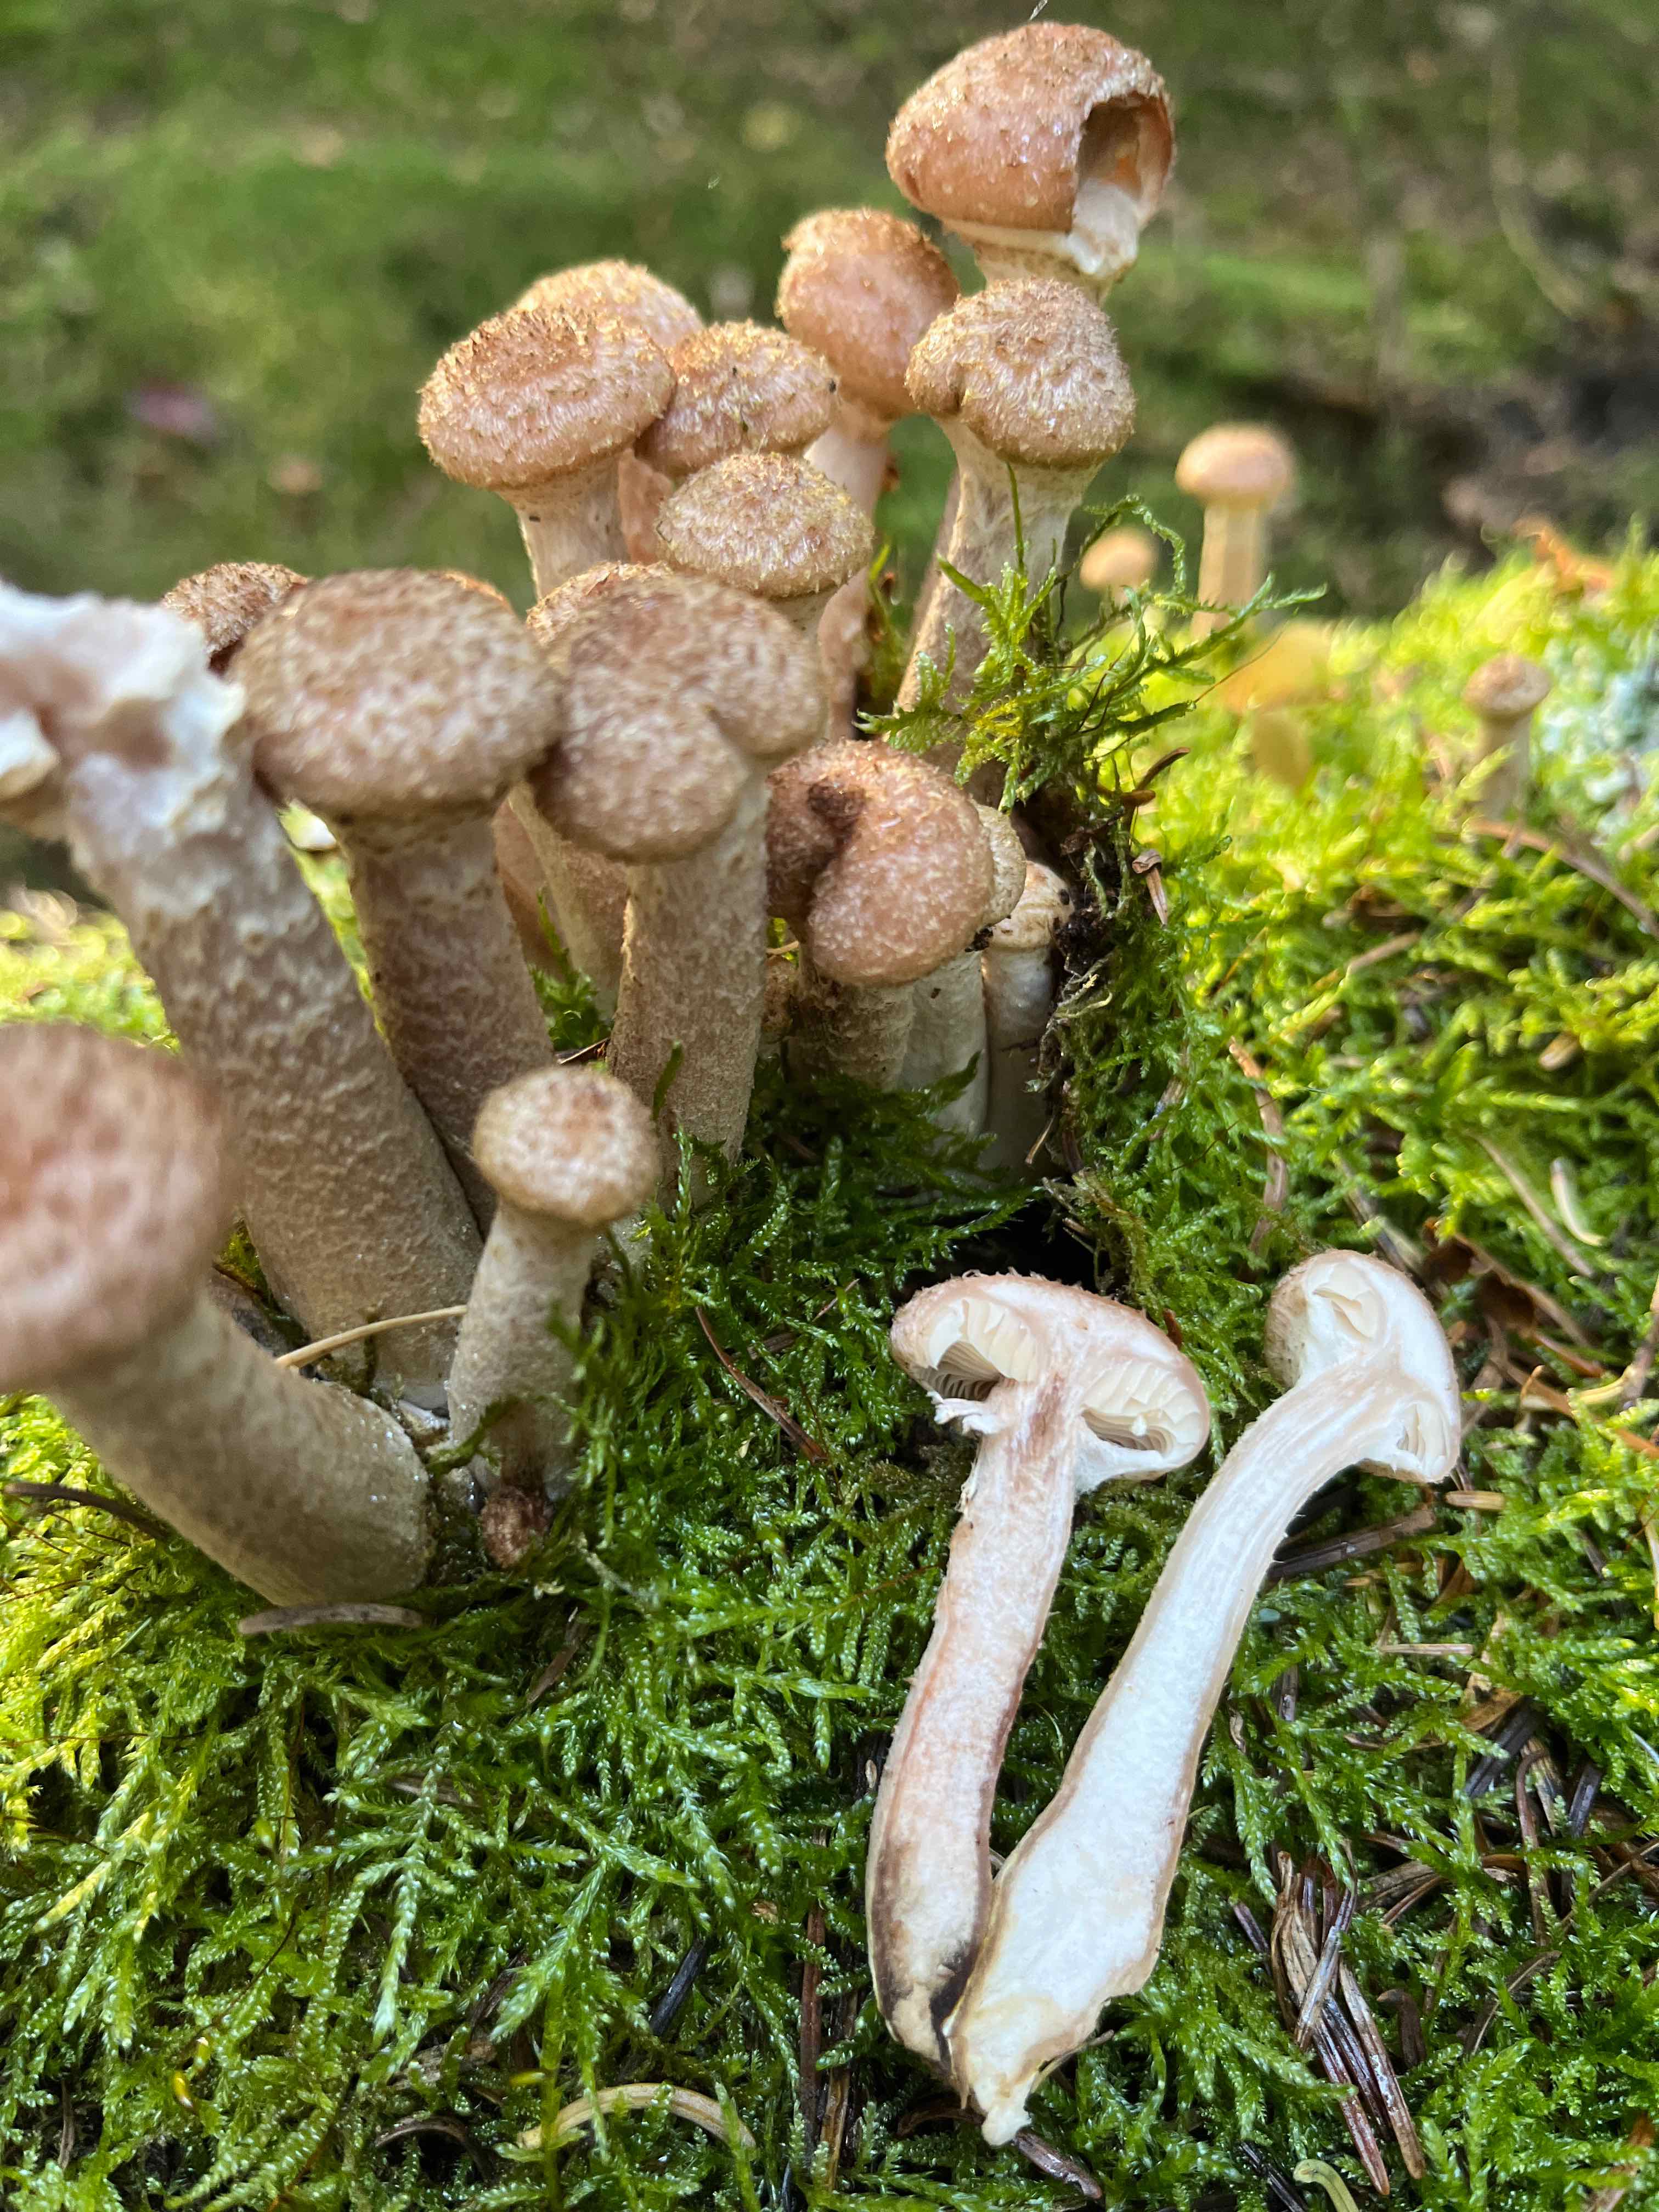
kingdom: Fungi
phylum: Basidiomycota
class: Agaricomycetes
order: Agaricales
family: Physalacriaceae
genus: Armillaria
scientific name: Armillaria ostoyae
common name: mørk honningsvamp
